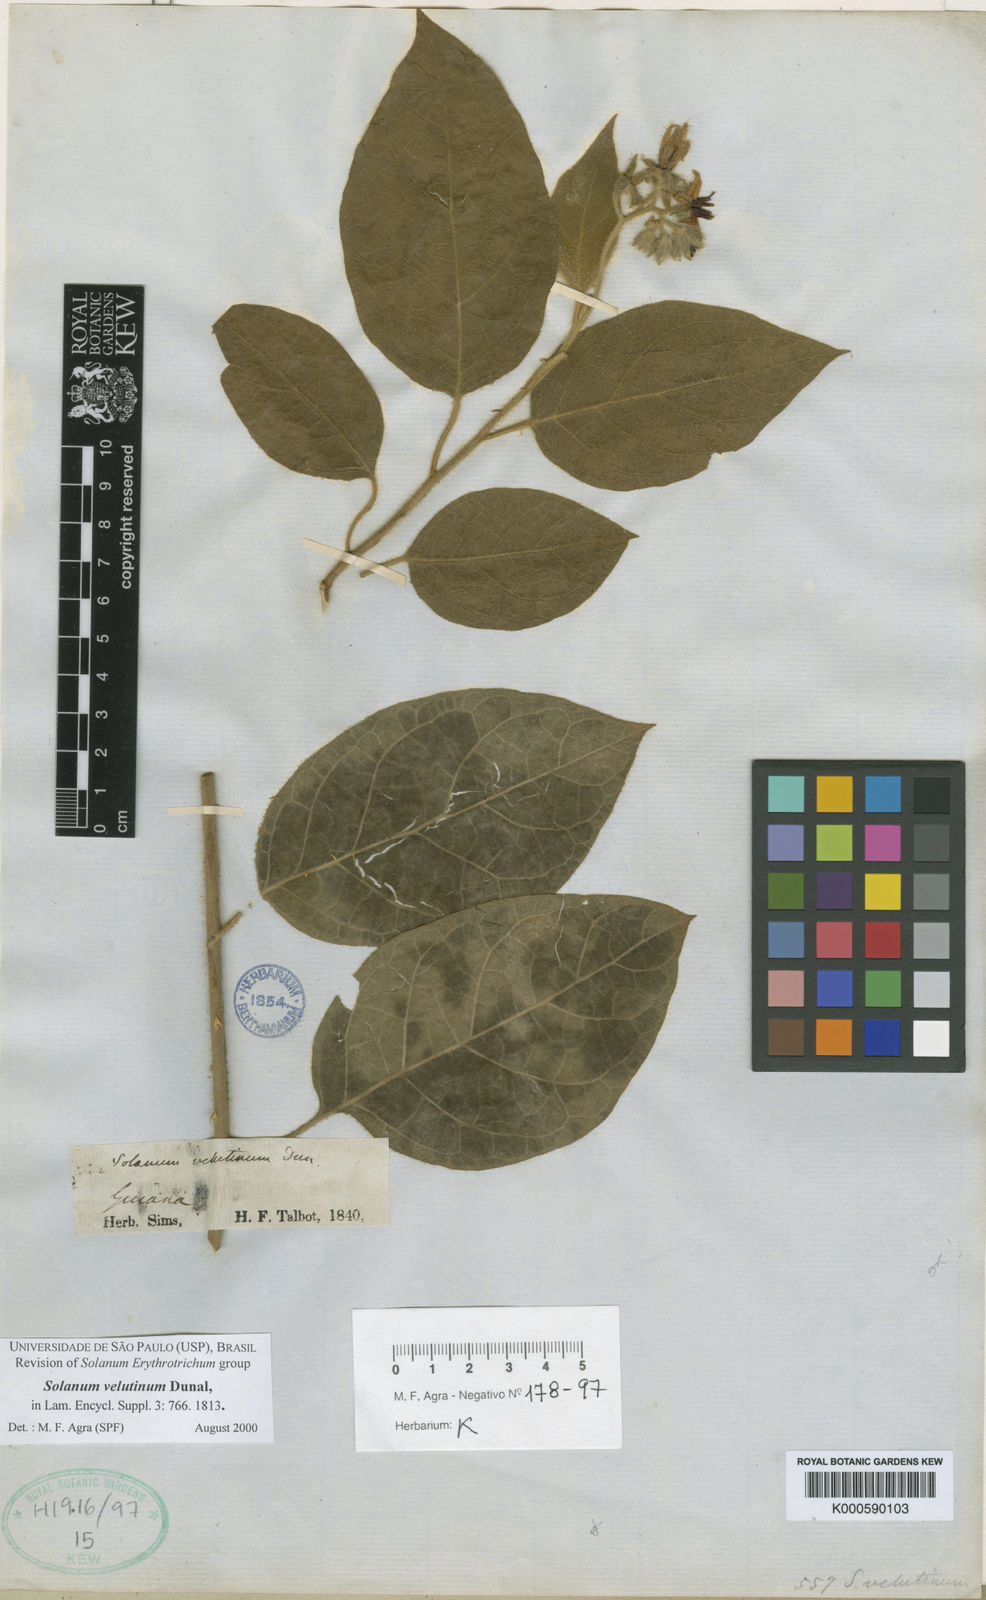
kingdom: Plantae
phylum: Tracheophyta
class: Magnoliopsida
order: Solanales
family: Solanaceae
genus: Solanum
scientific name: Solanum velutinum
